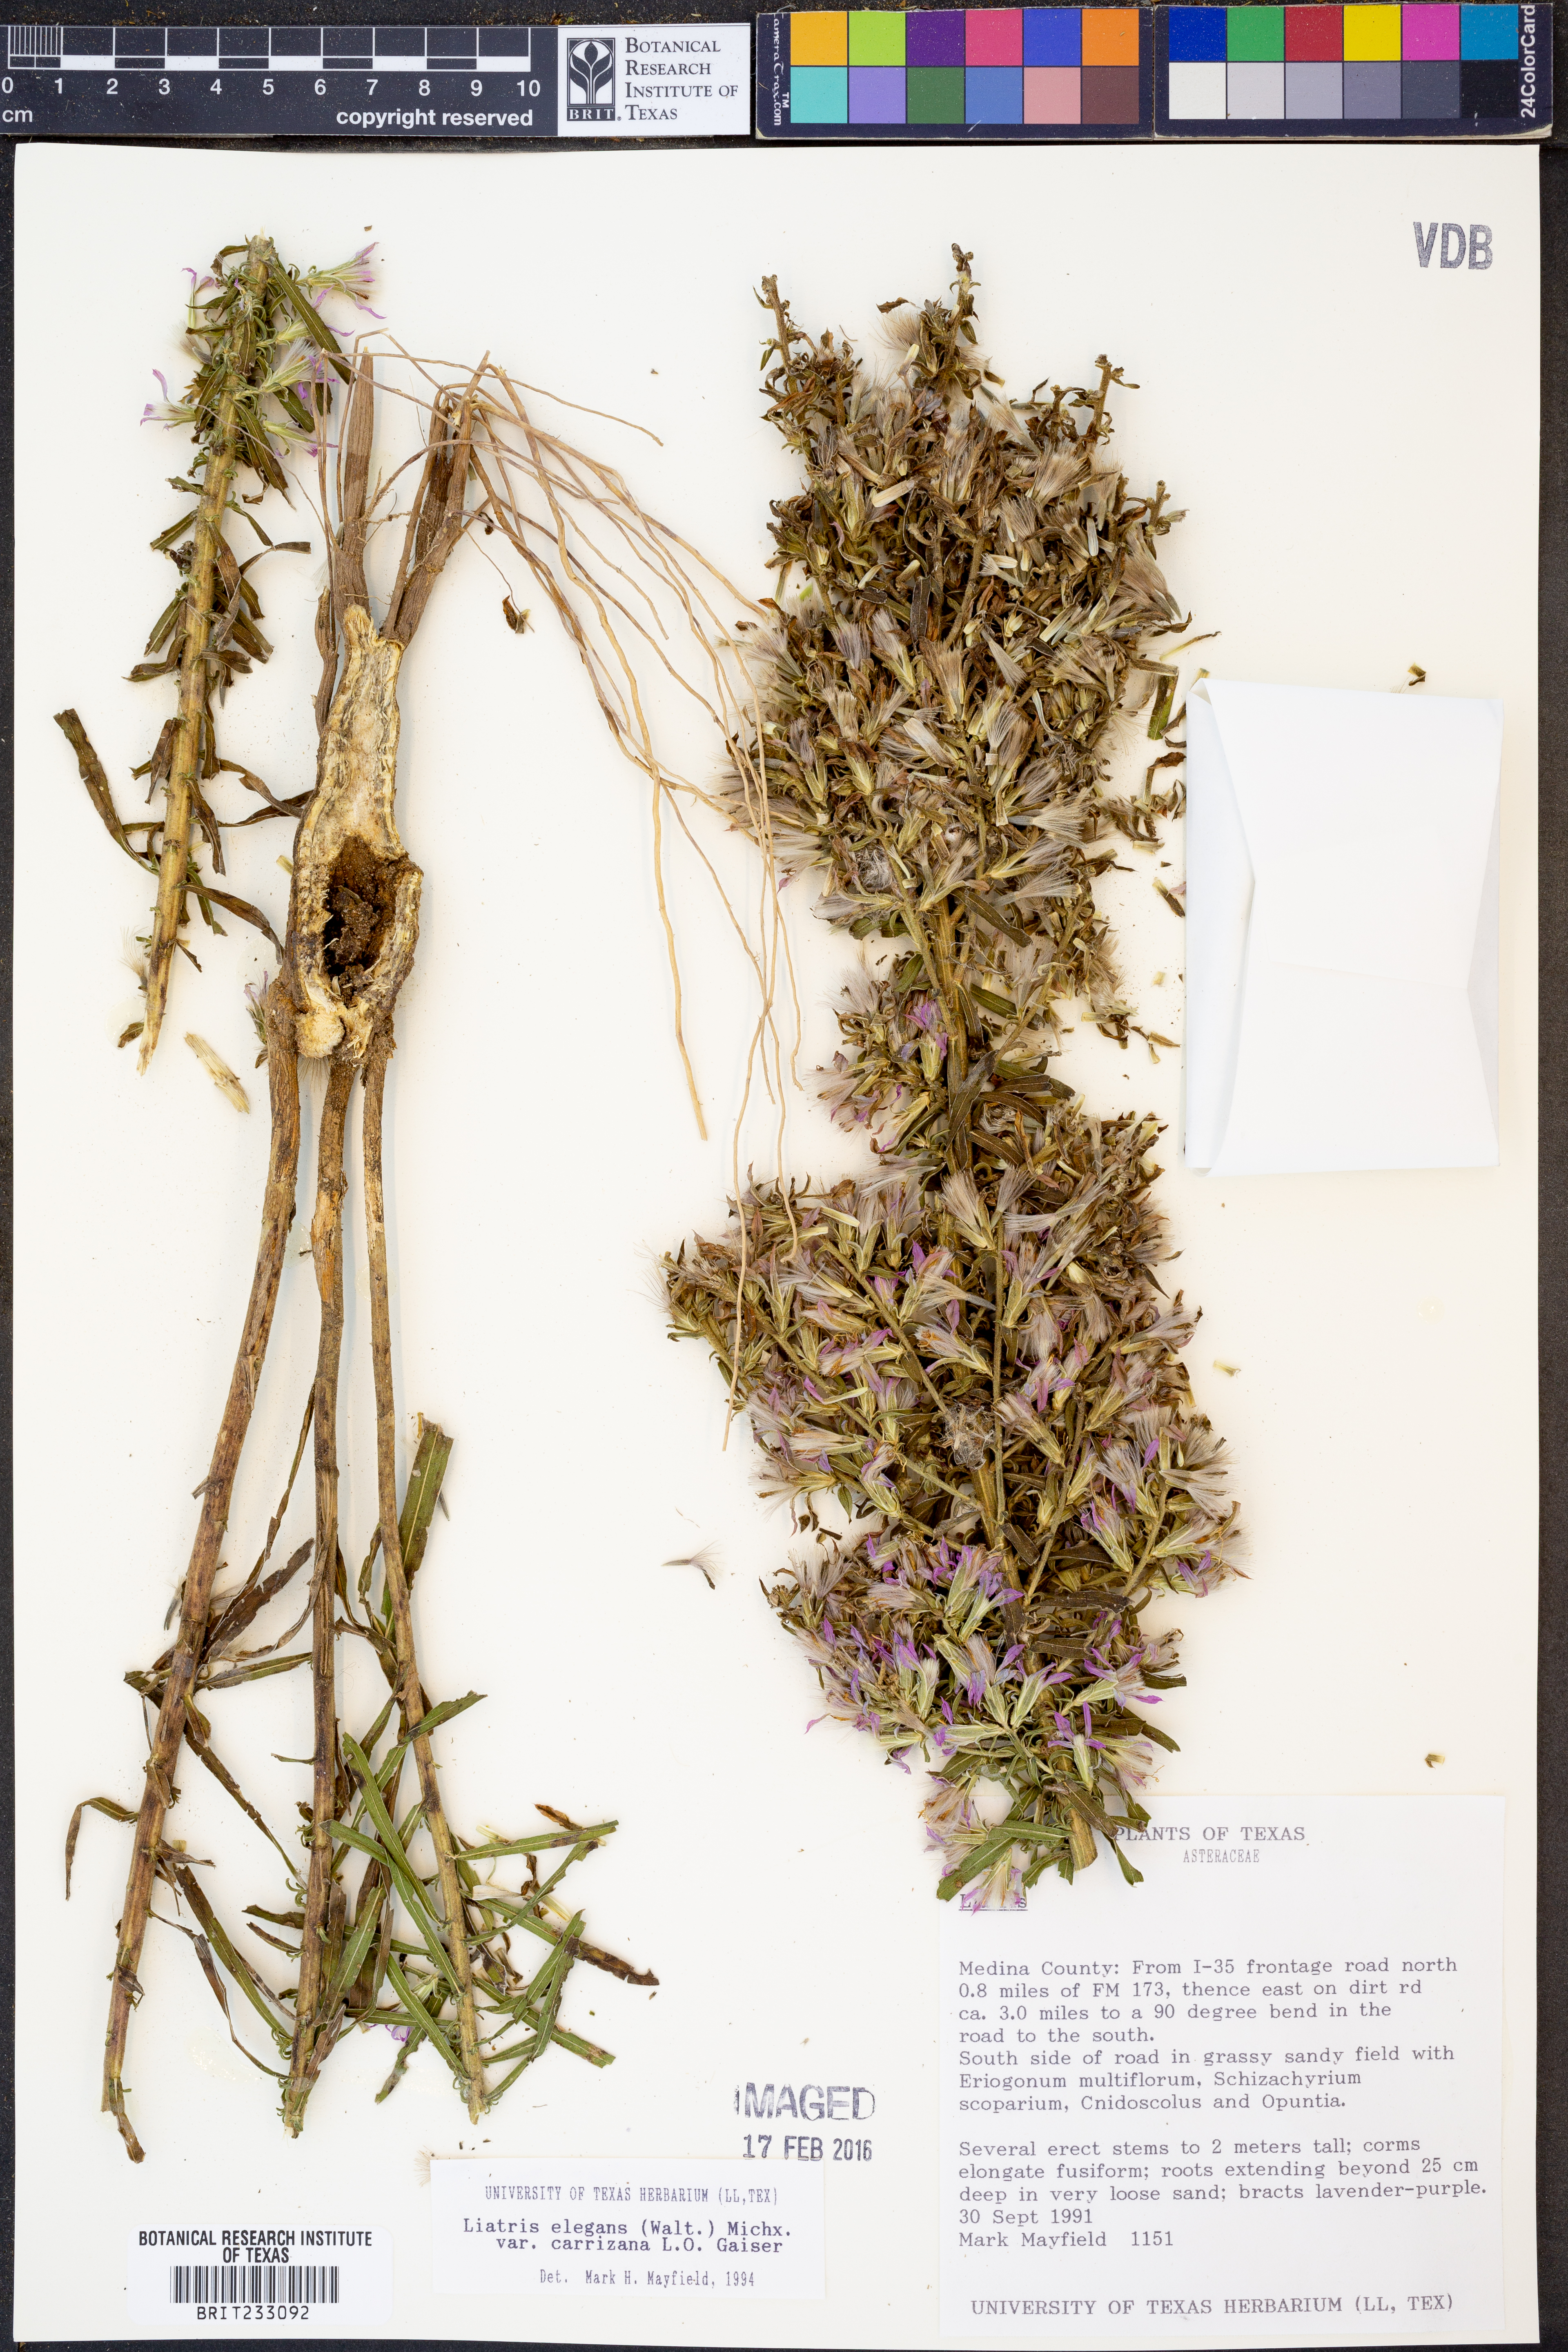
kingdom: Plantae
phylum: Tracheophyta
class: Magnoliopsida
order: Asterales
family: Asteraceae
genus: Liatris
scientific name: Liatris carizzana
